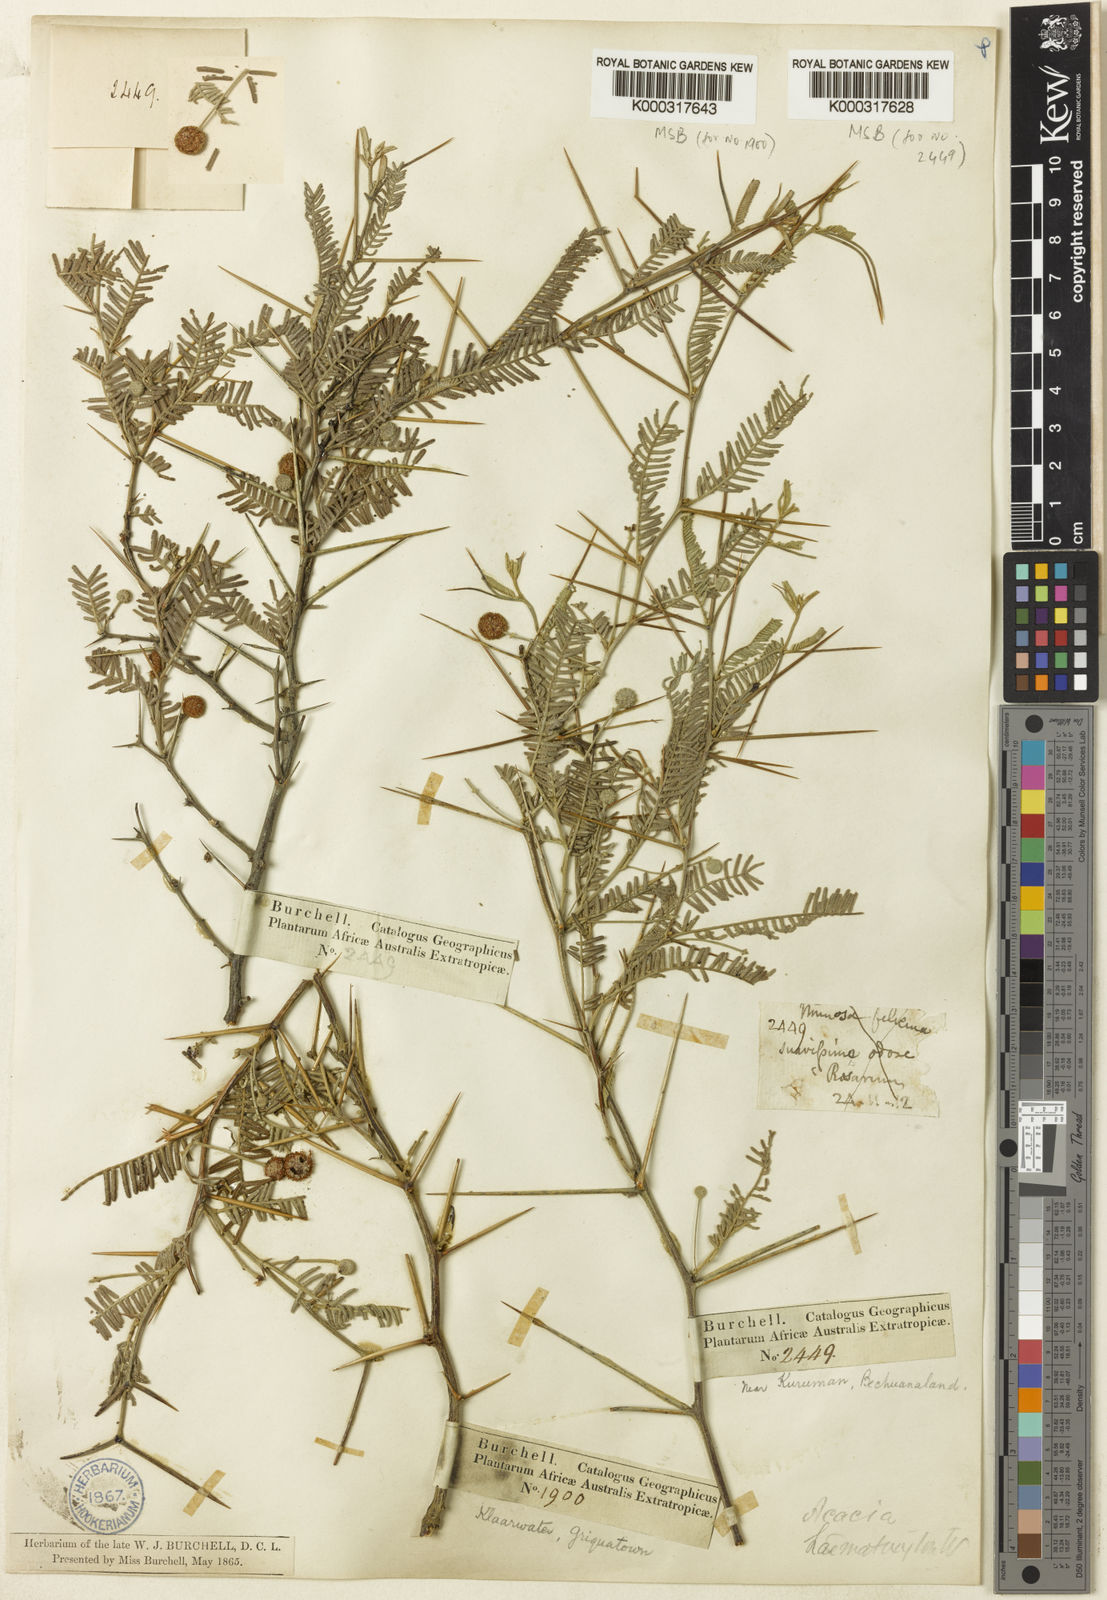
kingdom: Plantae
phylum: Tracheophyta
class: Magnoliopsida
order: Fabales
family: Fabaceae
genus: Vachellia
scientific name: Vachellia haematoxylon
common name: Grey camel thorn
